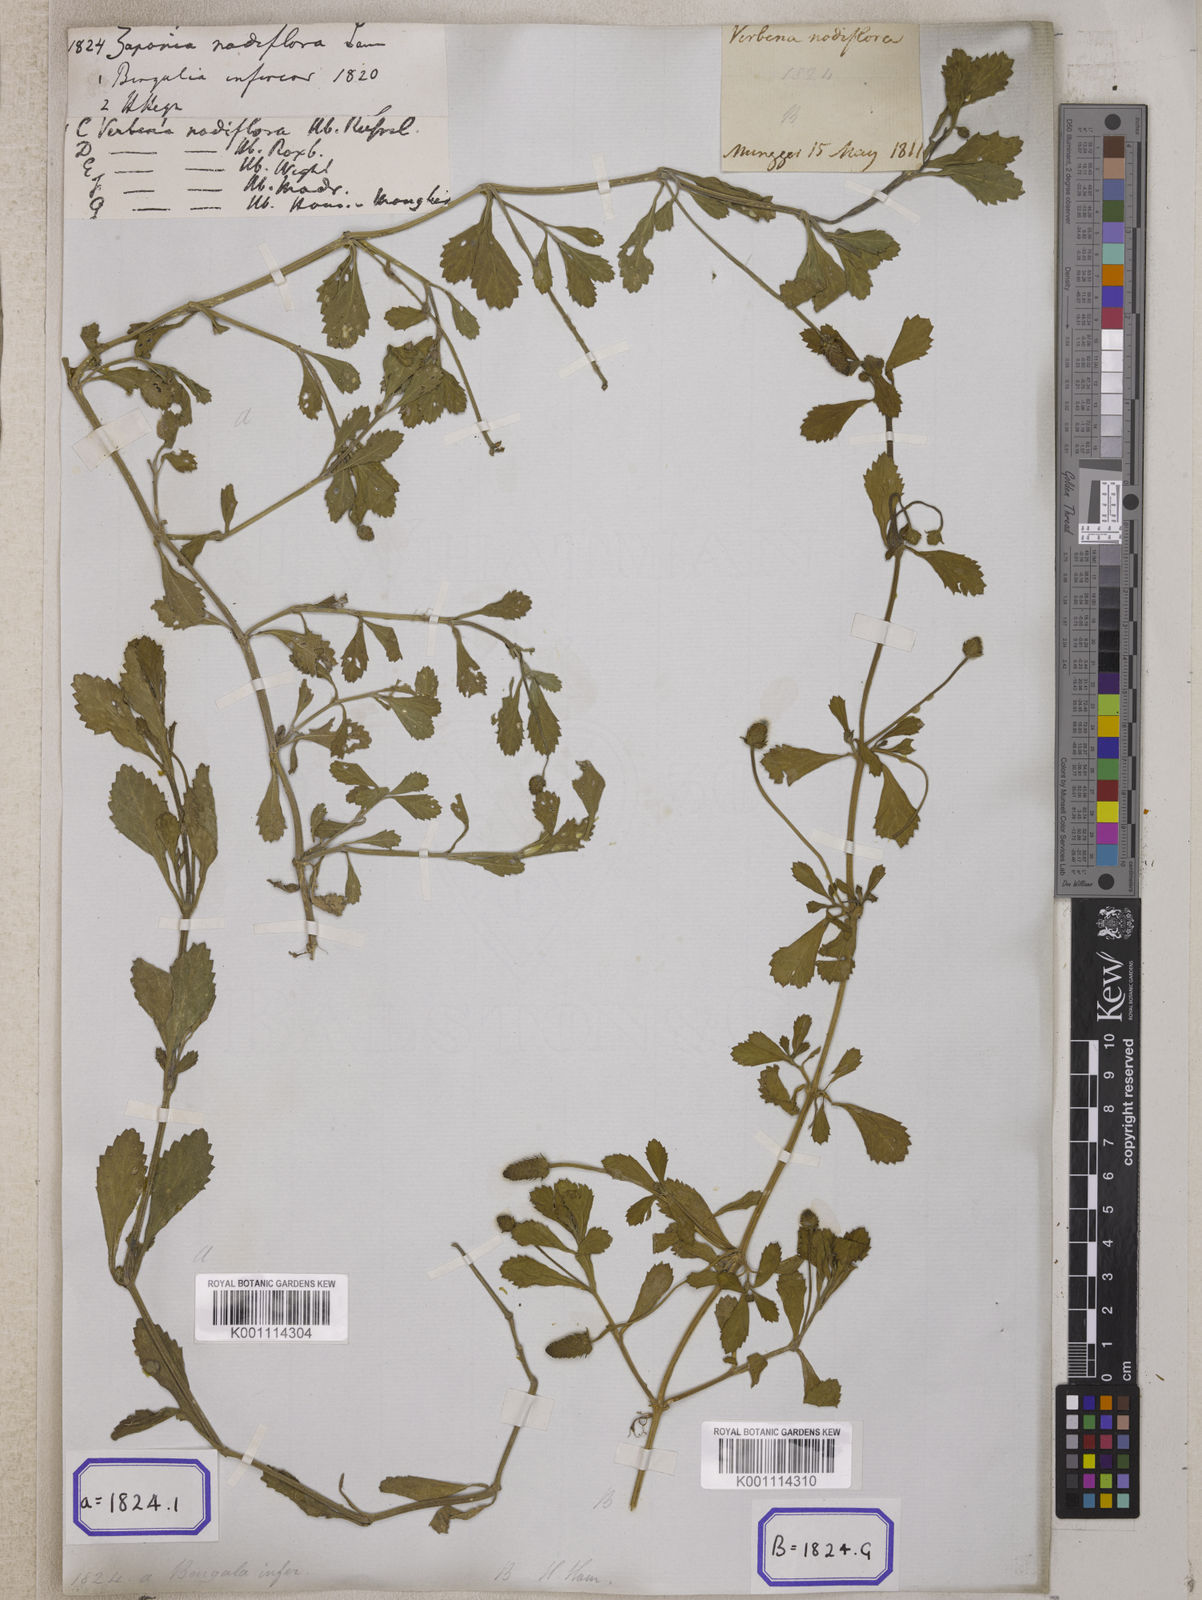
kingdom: Plantae
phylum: Tracheophyta
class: Magnoliopsida
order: Lamiales
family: Verbenaceae
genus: Phyla
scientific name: Phyla nodiflora
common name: Frogfruit
